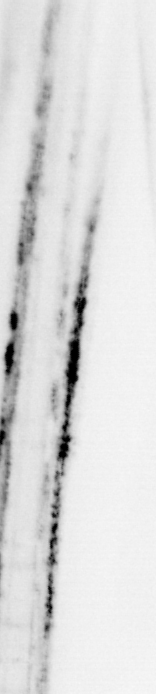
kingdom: Animalia
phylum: Chordata
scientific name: Chordata
